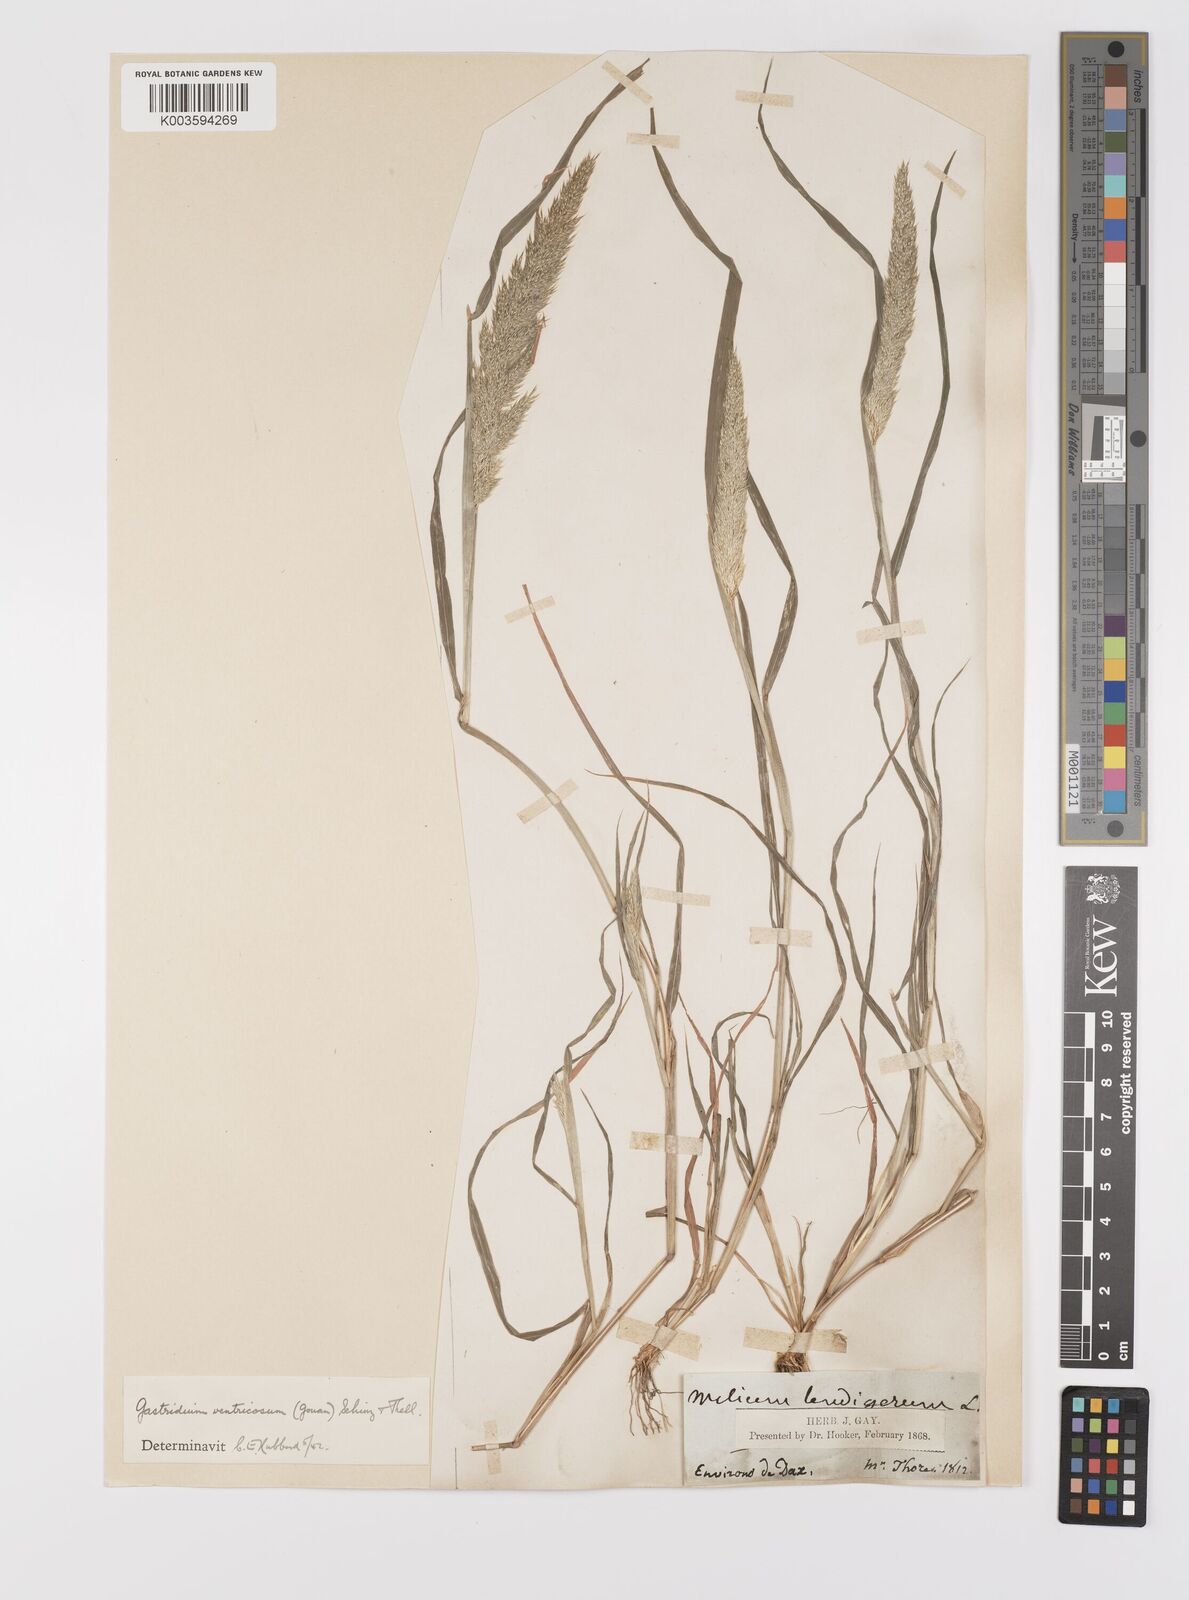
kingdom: Plantae
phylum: Tracheophyta
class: Liliopsida
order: Poales
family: Poaceae
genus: Gastridium
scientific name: Gastridium ventricosum
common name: Nit-grass
